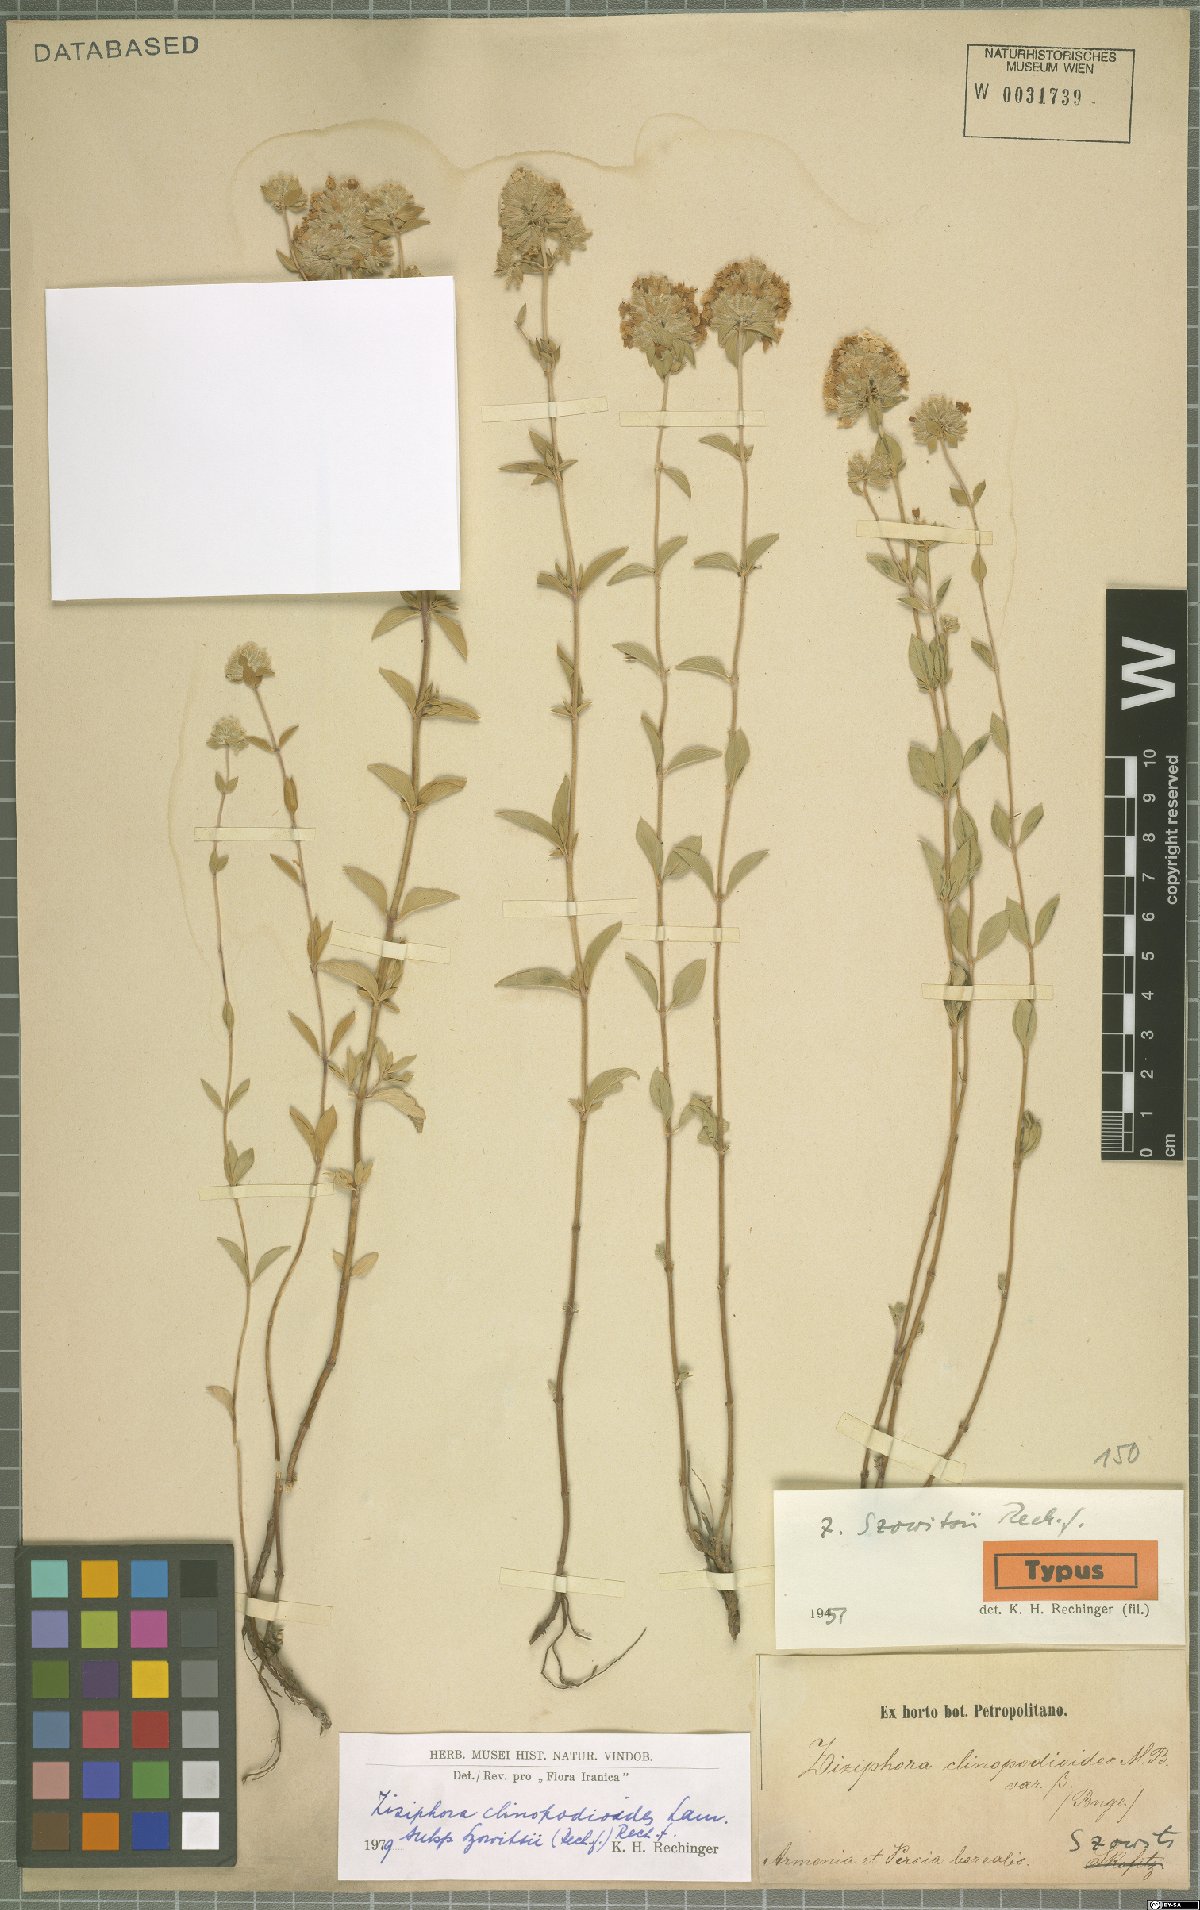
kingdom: Plantae
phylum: Tracheophyta
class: Magnoliopsida
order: Lamiales
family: Lamiaceae
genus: Ziziphora
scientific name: Ziziphora clinopodioides
